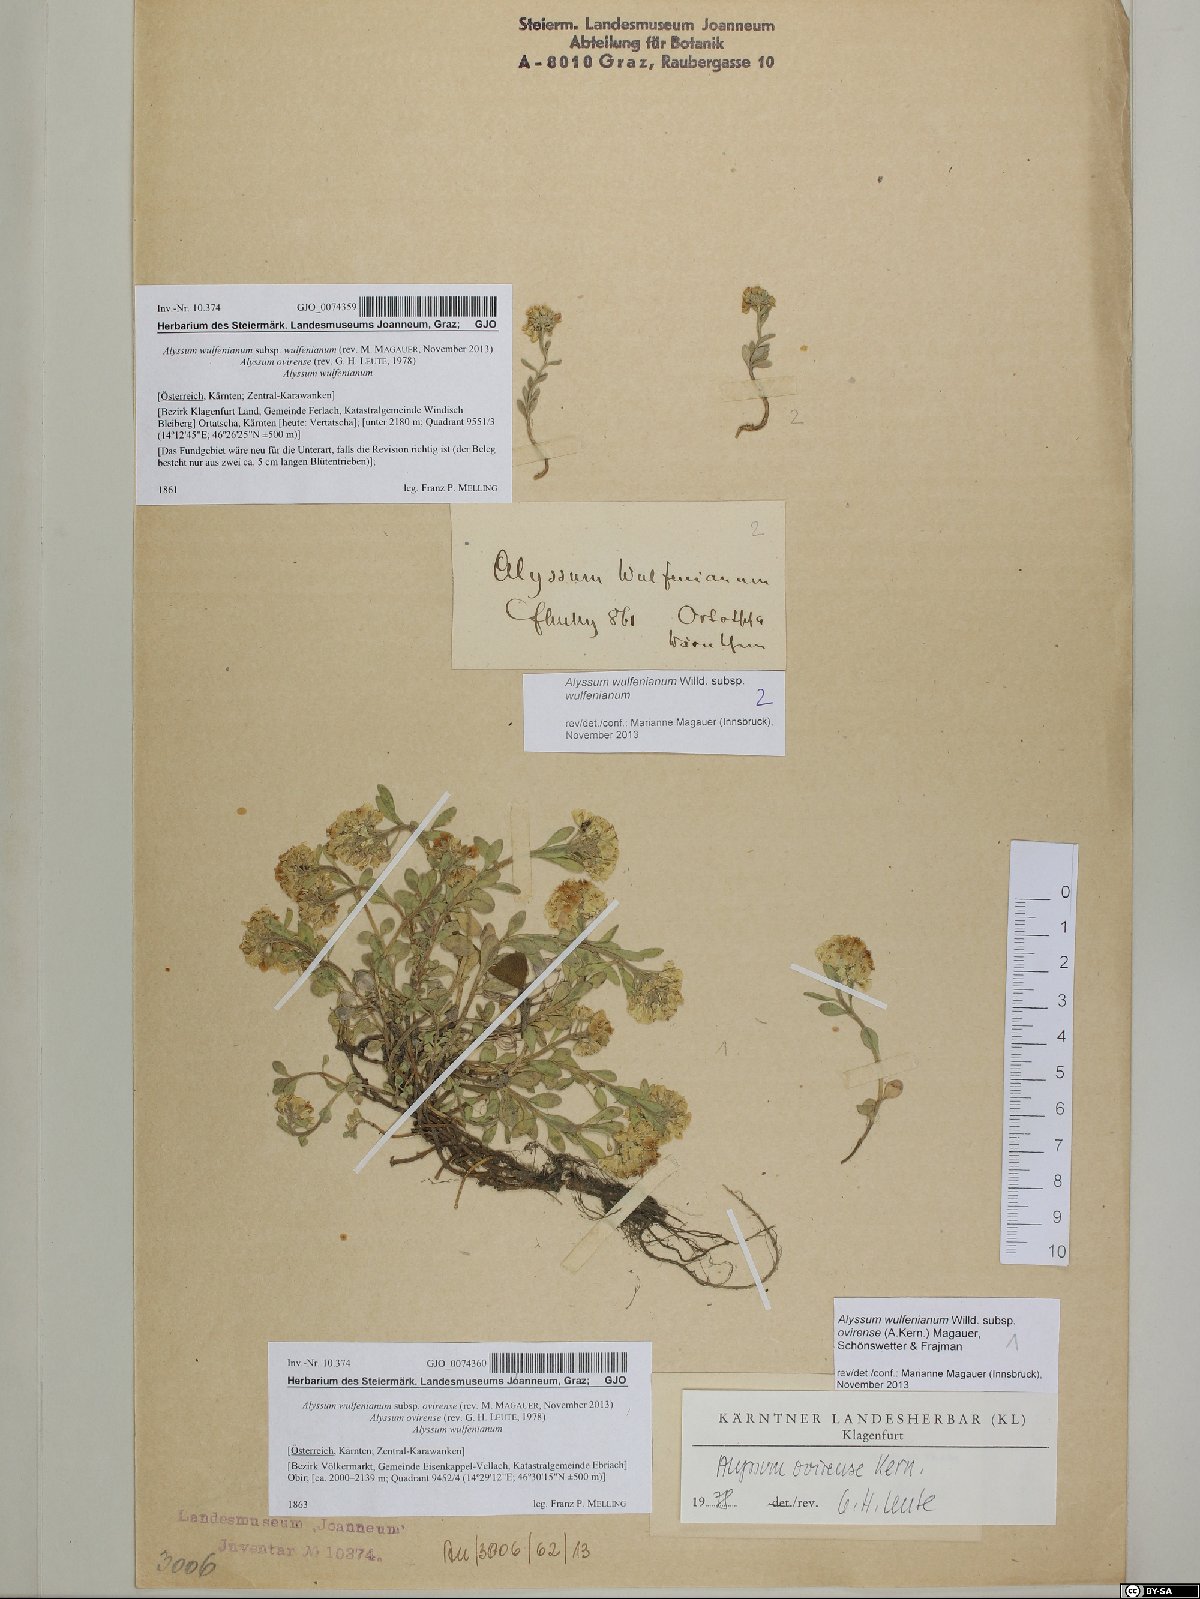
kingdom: Plantae
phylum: Tracheophyta
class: Magnoliopsida
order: Brassicales
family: Brassicaceae
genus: Alyssum
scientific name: Alyssum wulfenianum
